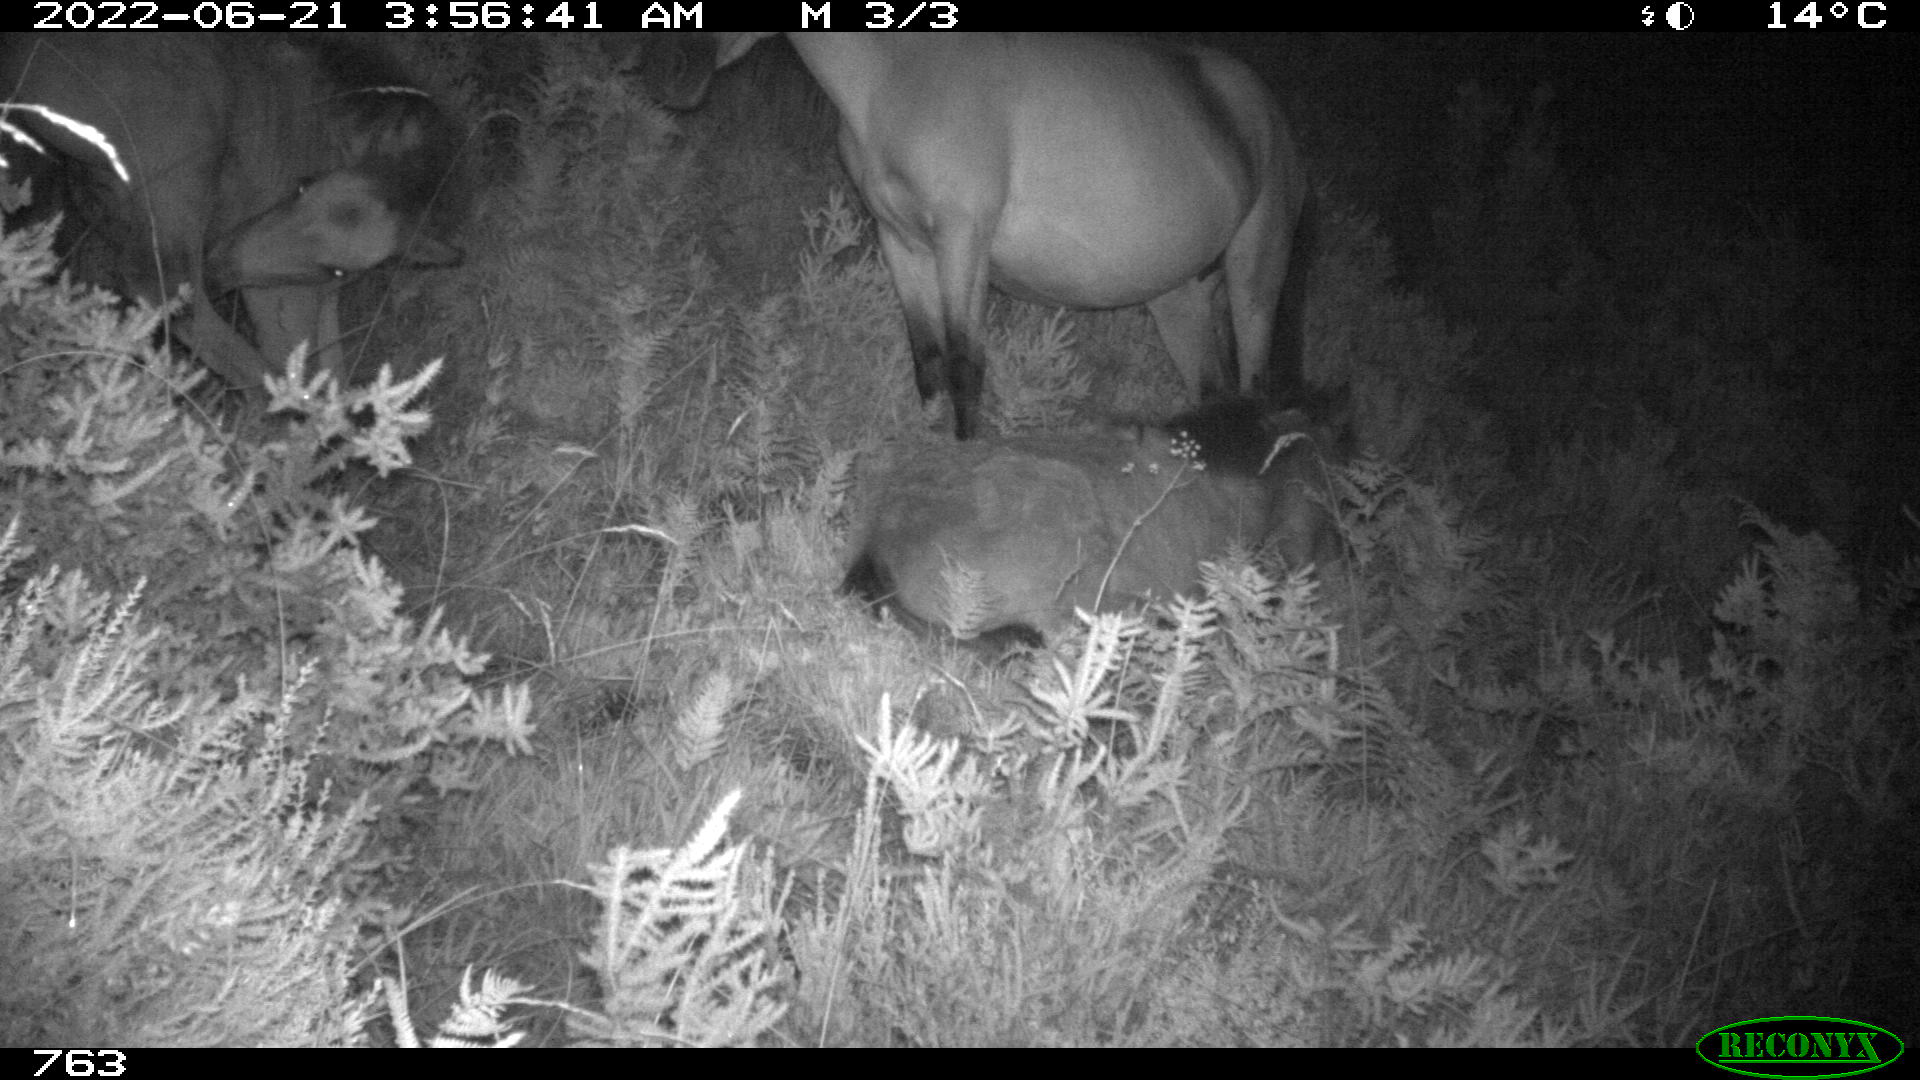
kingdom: Animalia
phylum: Chordata
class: Mammalia
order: Perissodactyla
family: Equidae
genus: Equus
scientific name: Equus caballus
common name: Horse
